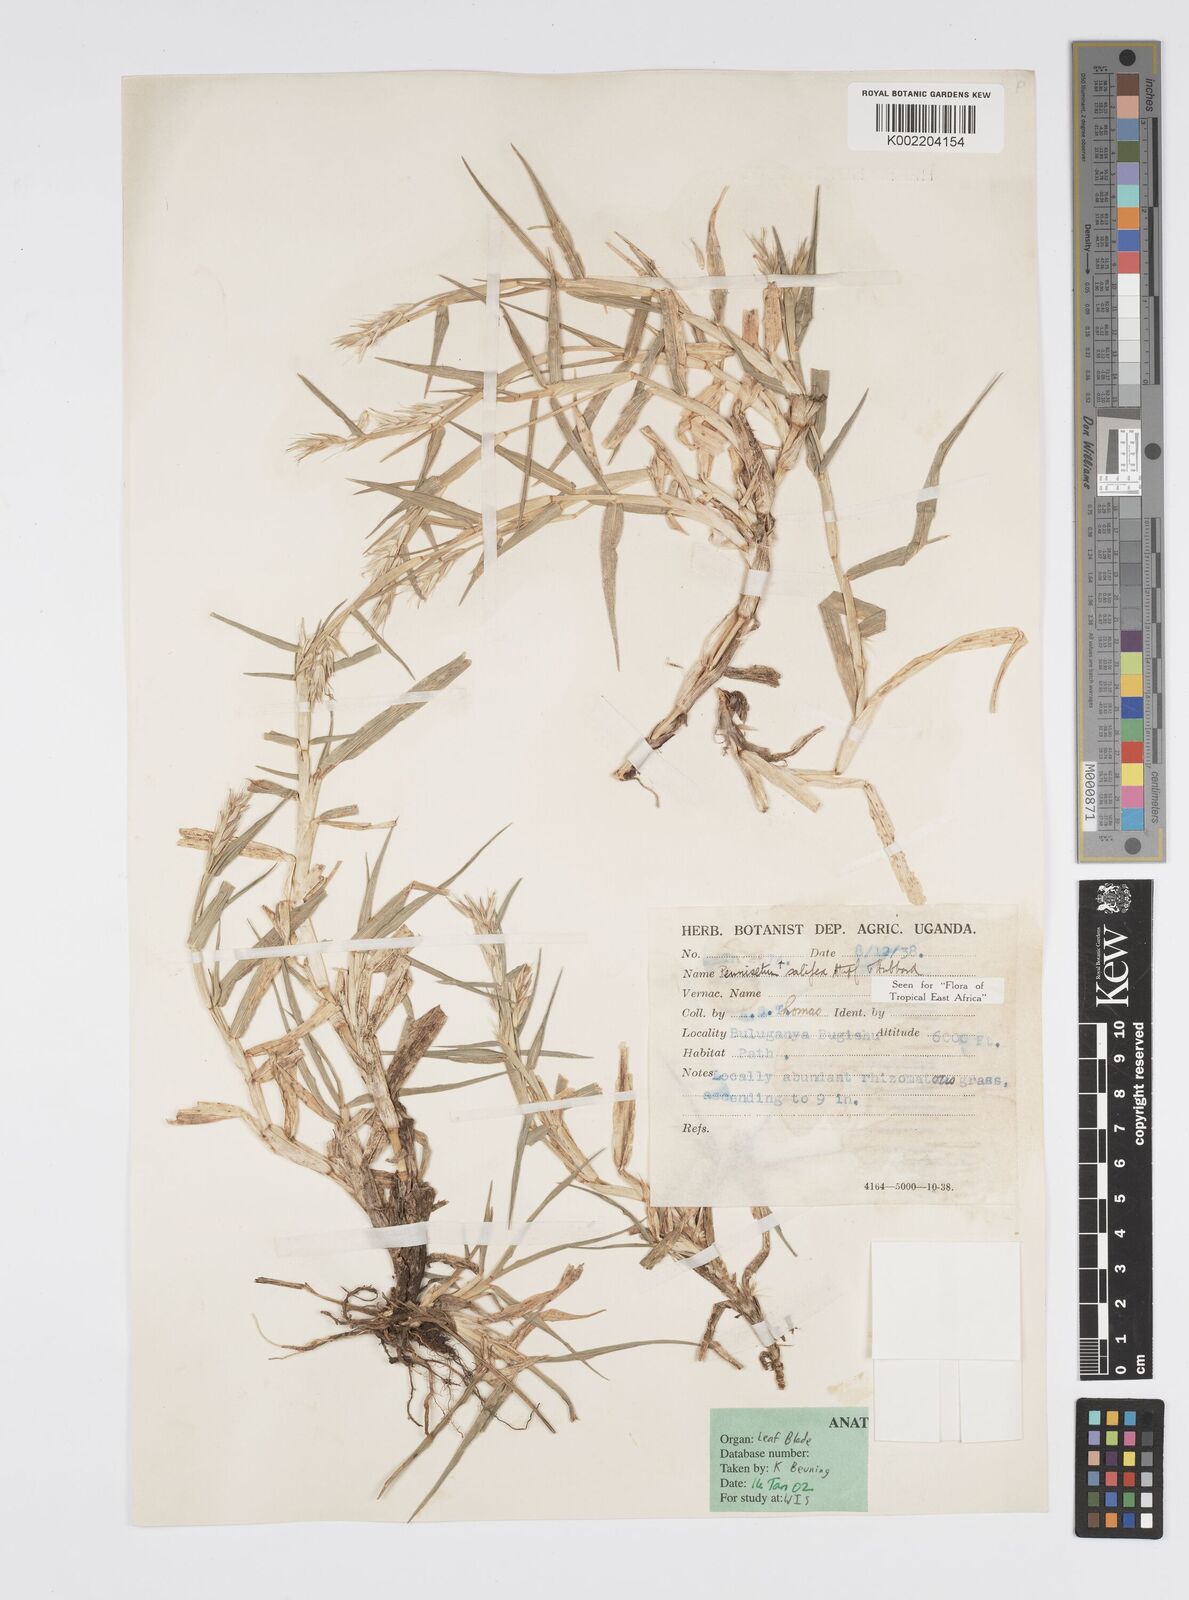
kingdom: Plantae
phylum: Tracheophyta
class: Liliopsida
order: Poales
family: Poaceae
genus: Cenchrus
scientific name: Cenchrus riparius
